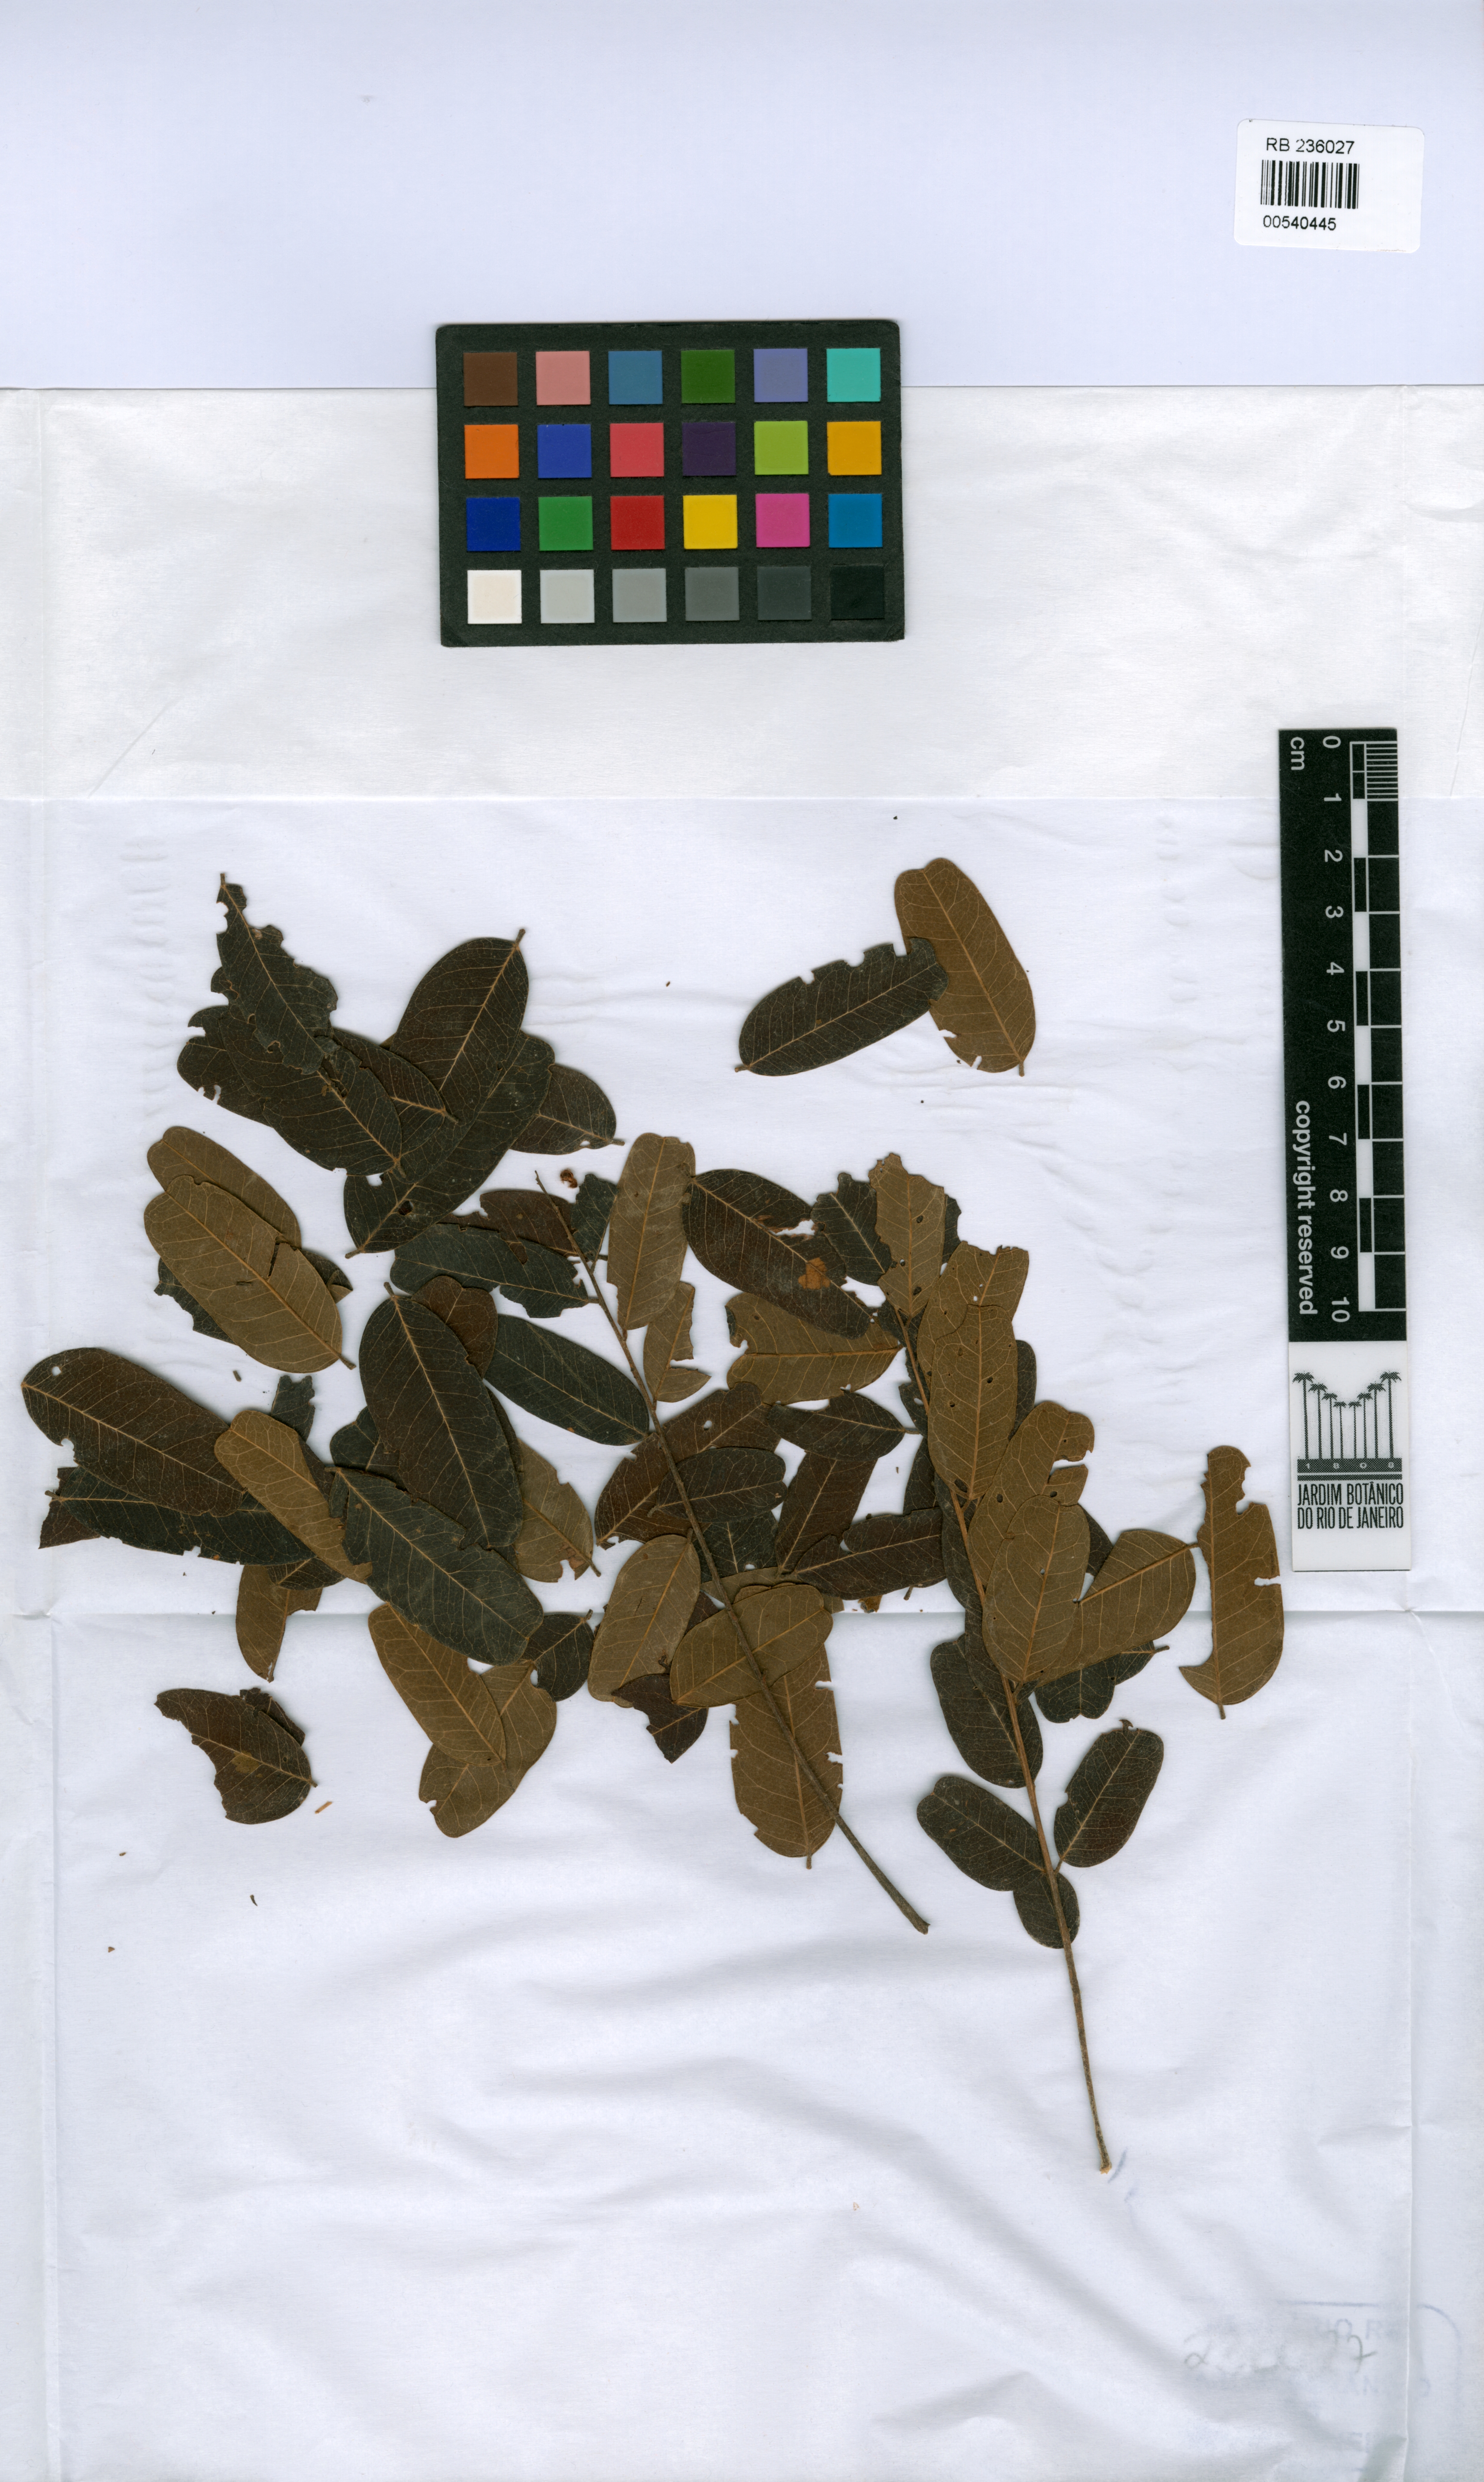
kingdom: Plantae
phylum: Tracheophyta
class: Magnoliopsida
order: Fabales
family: Fabaceae
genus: Vataireopsis
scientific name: Vataireopsis iglesiasii
